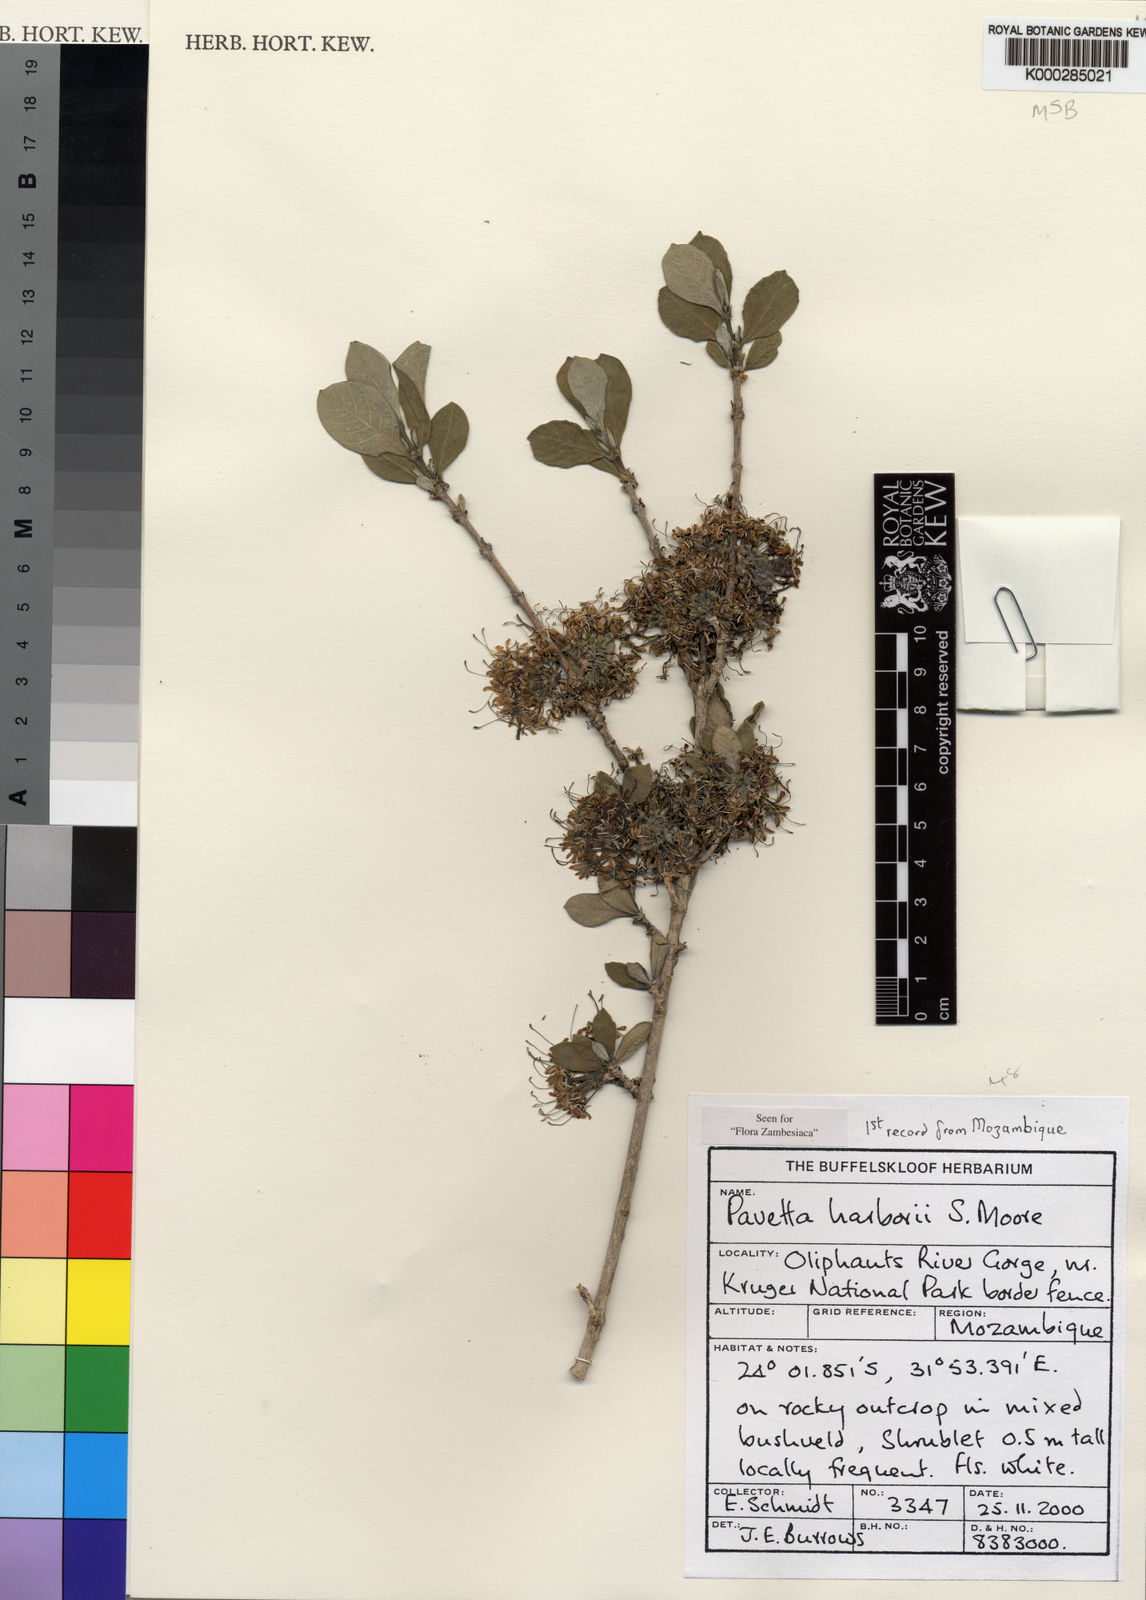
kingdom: Plantae
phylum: Tracheophyta
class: Magnoliopsida
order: Gentianales
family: Rubiaceae
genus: Pavetta
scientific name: Pavetta harborii
